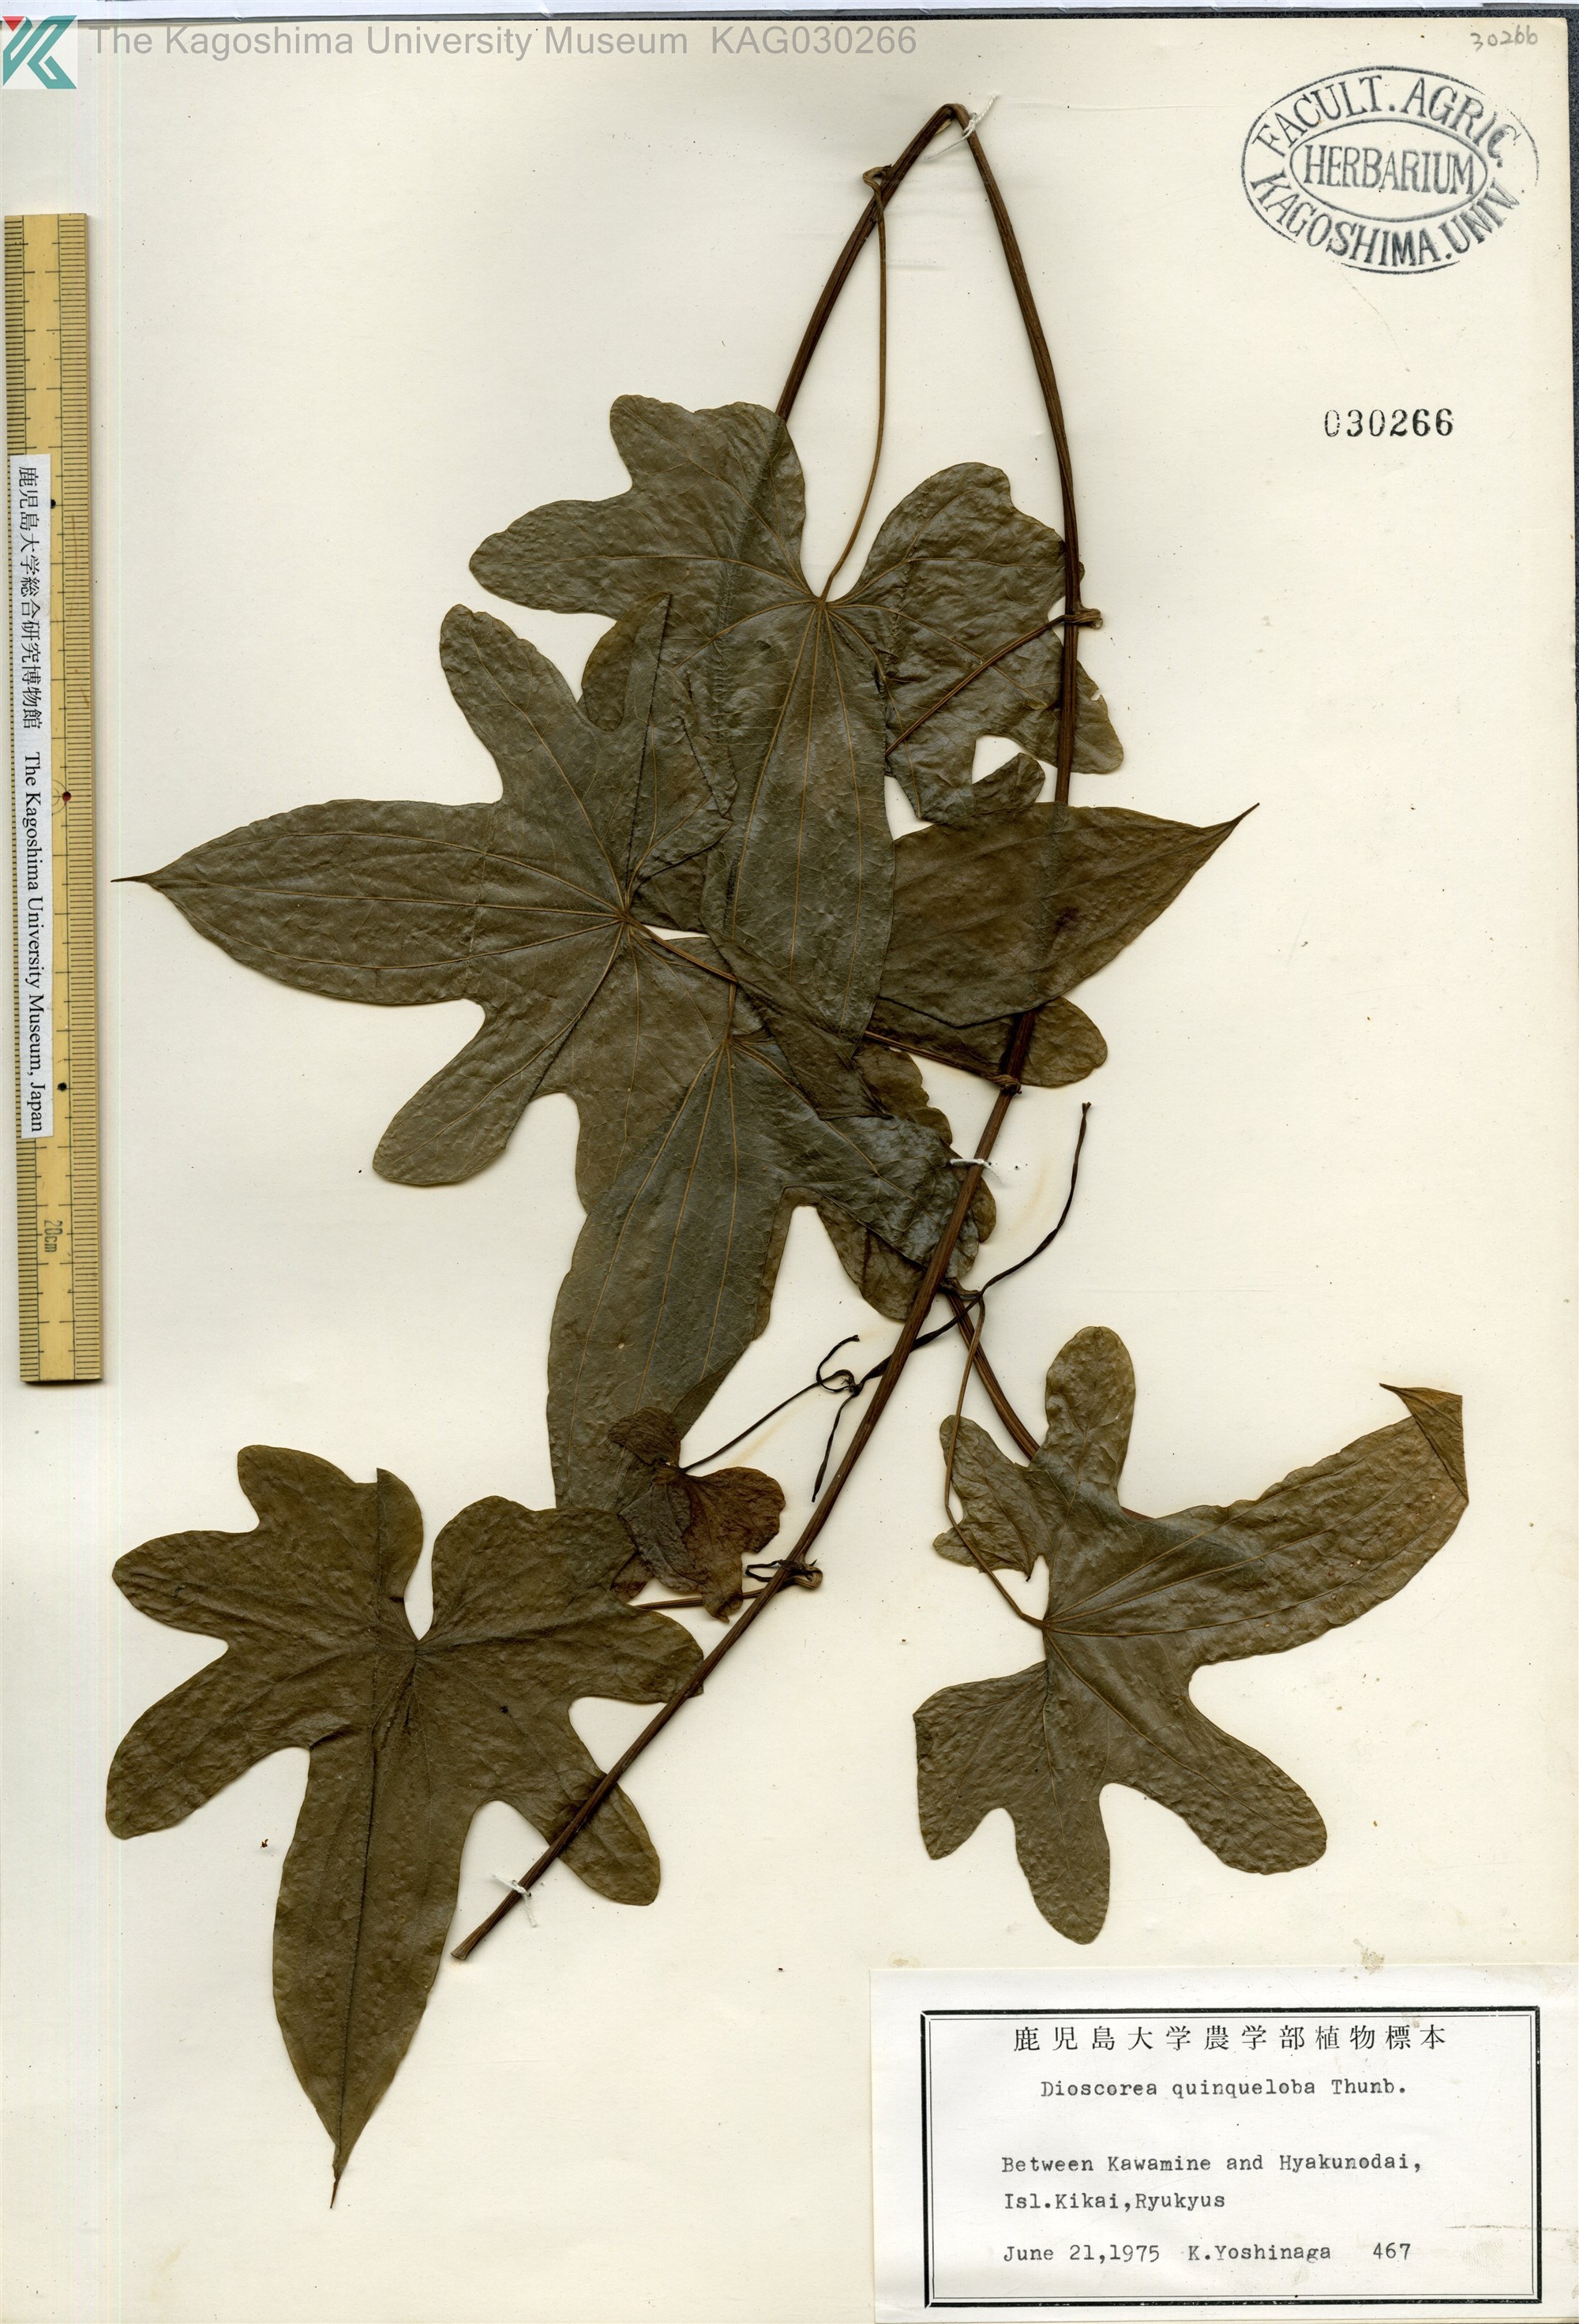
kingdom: Plantae
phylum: Tracheophyta
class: Liliopsida
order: Dioscoreales
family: Dioscoreaceae
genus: Dioscorea
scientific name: Dioscorea quinquelobata
